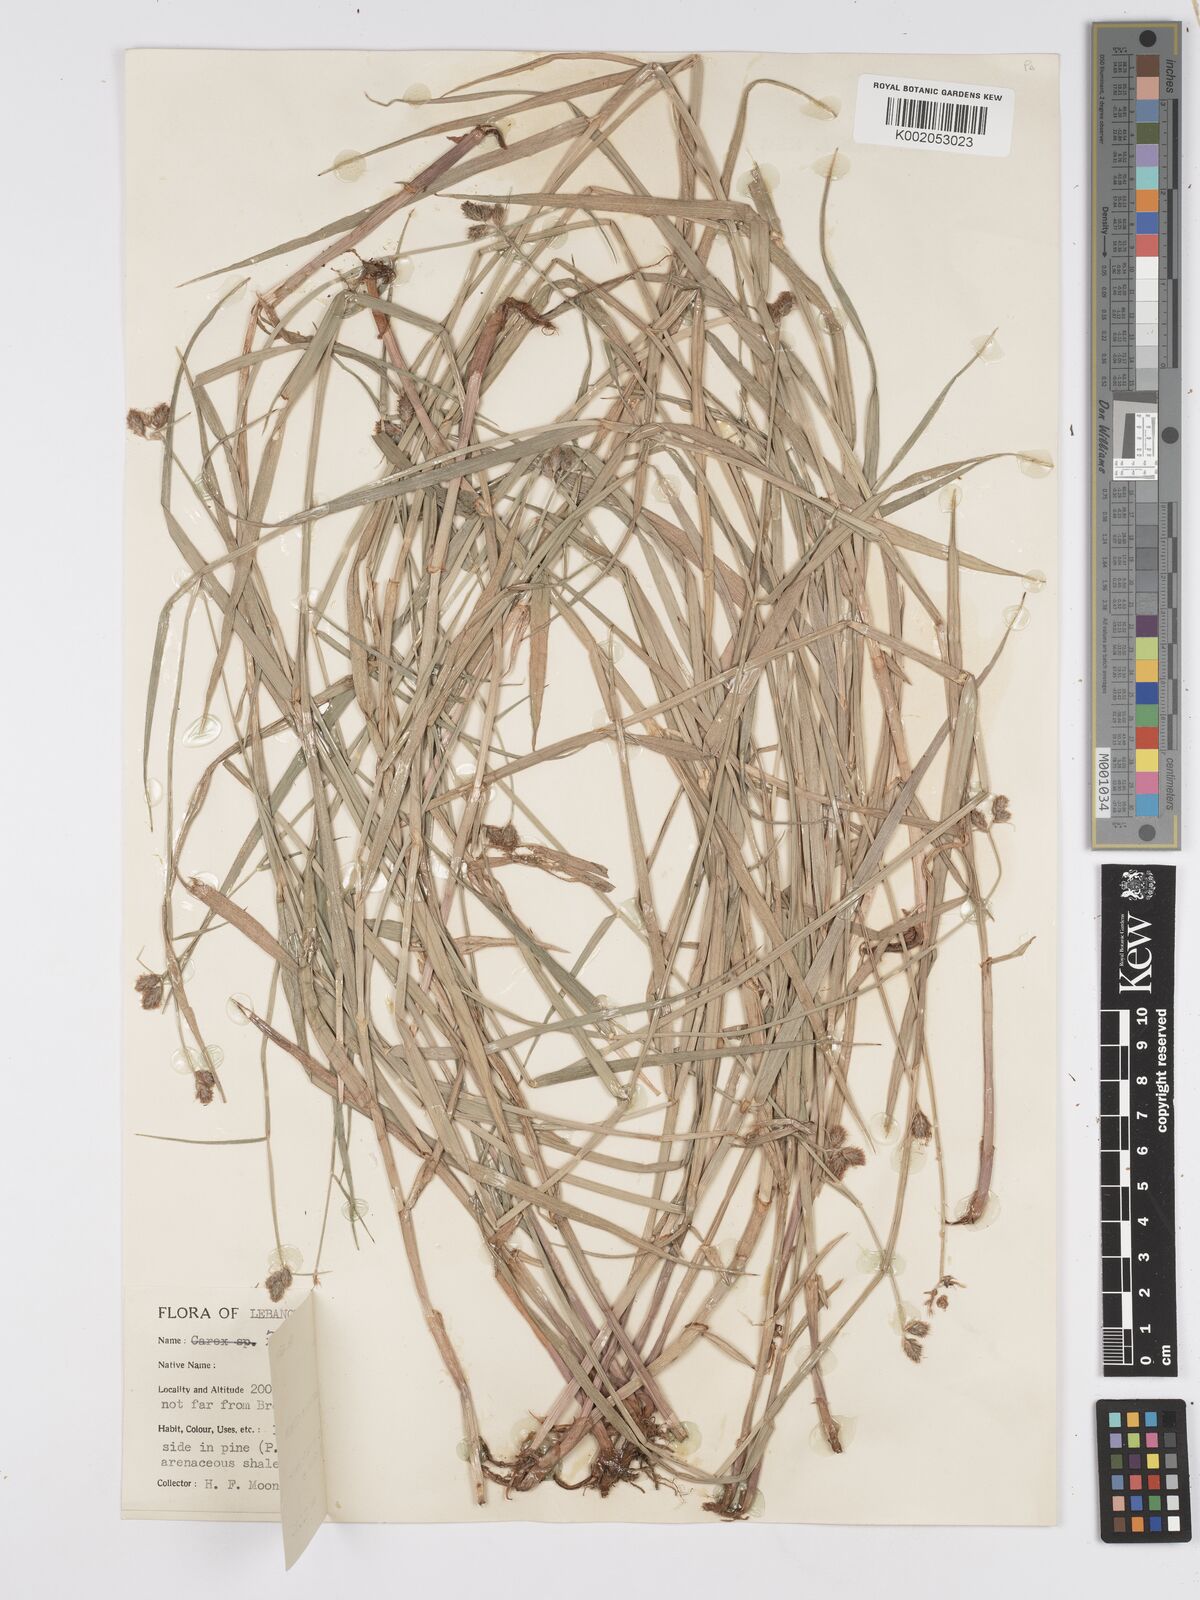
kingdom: Plantae
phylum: Tracheophyta
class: Liliopsida
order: Poales
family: Cyperaceae
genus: Fuirena
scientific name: Fuirena pubescens
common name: Hairy sedge
